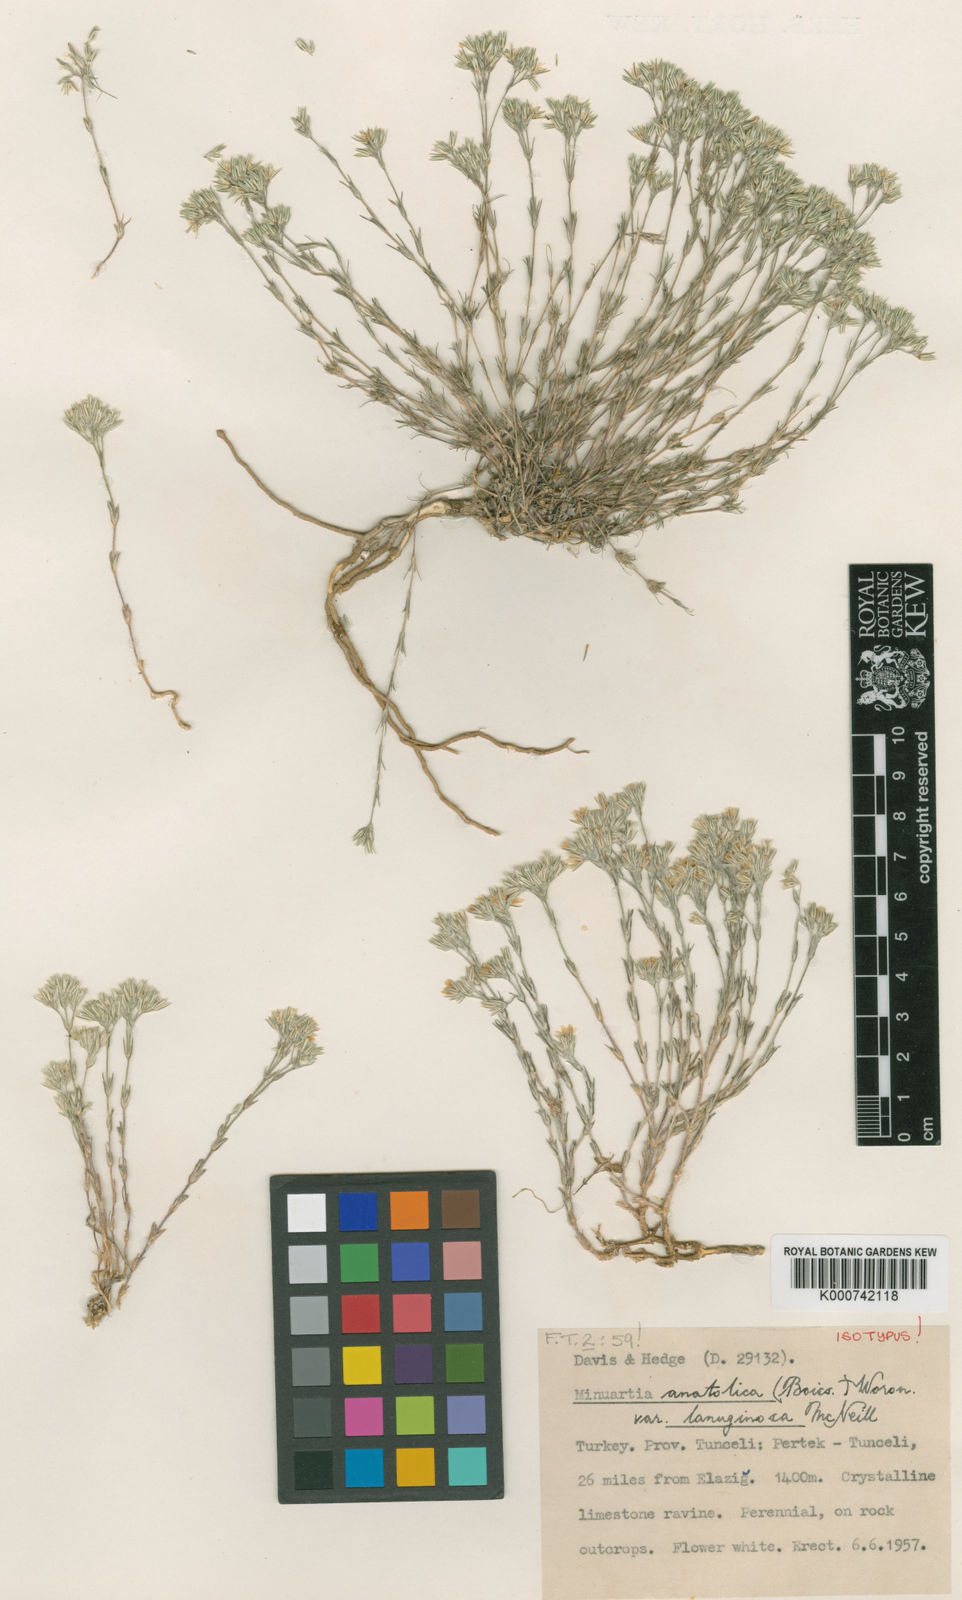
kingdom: Plantae
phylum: Tracheophyta
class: Magnoliopsida
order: Caryophyllales
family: Caryophyllaceae
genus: Minuartia
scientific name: Minuartia anatolica
